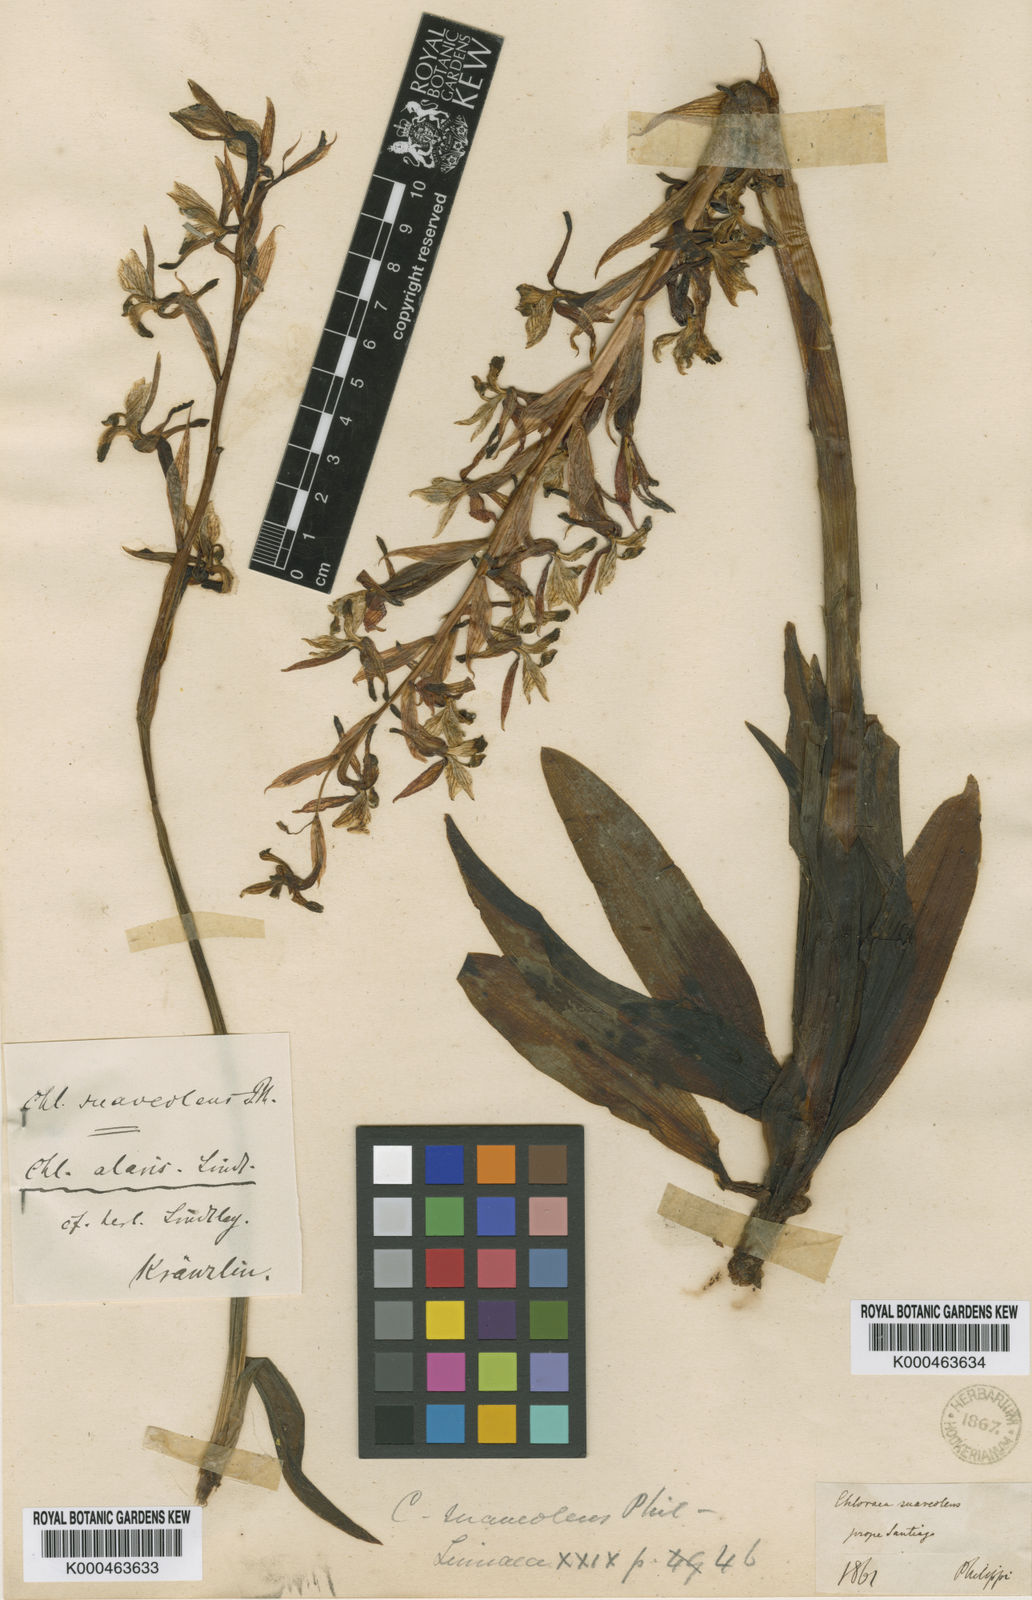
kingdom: Plantae
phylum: Tracheophyta
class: Liliopsida
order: Asparagales
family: Orchidaceae
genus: Chloraea
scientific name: Chloraea galeata
